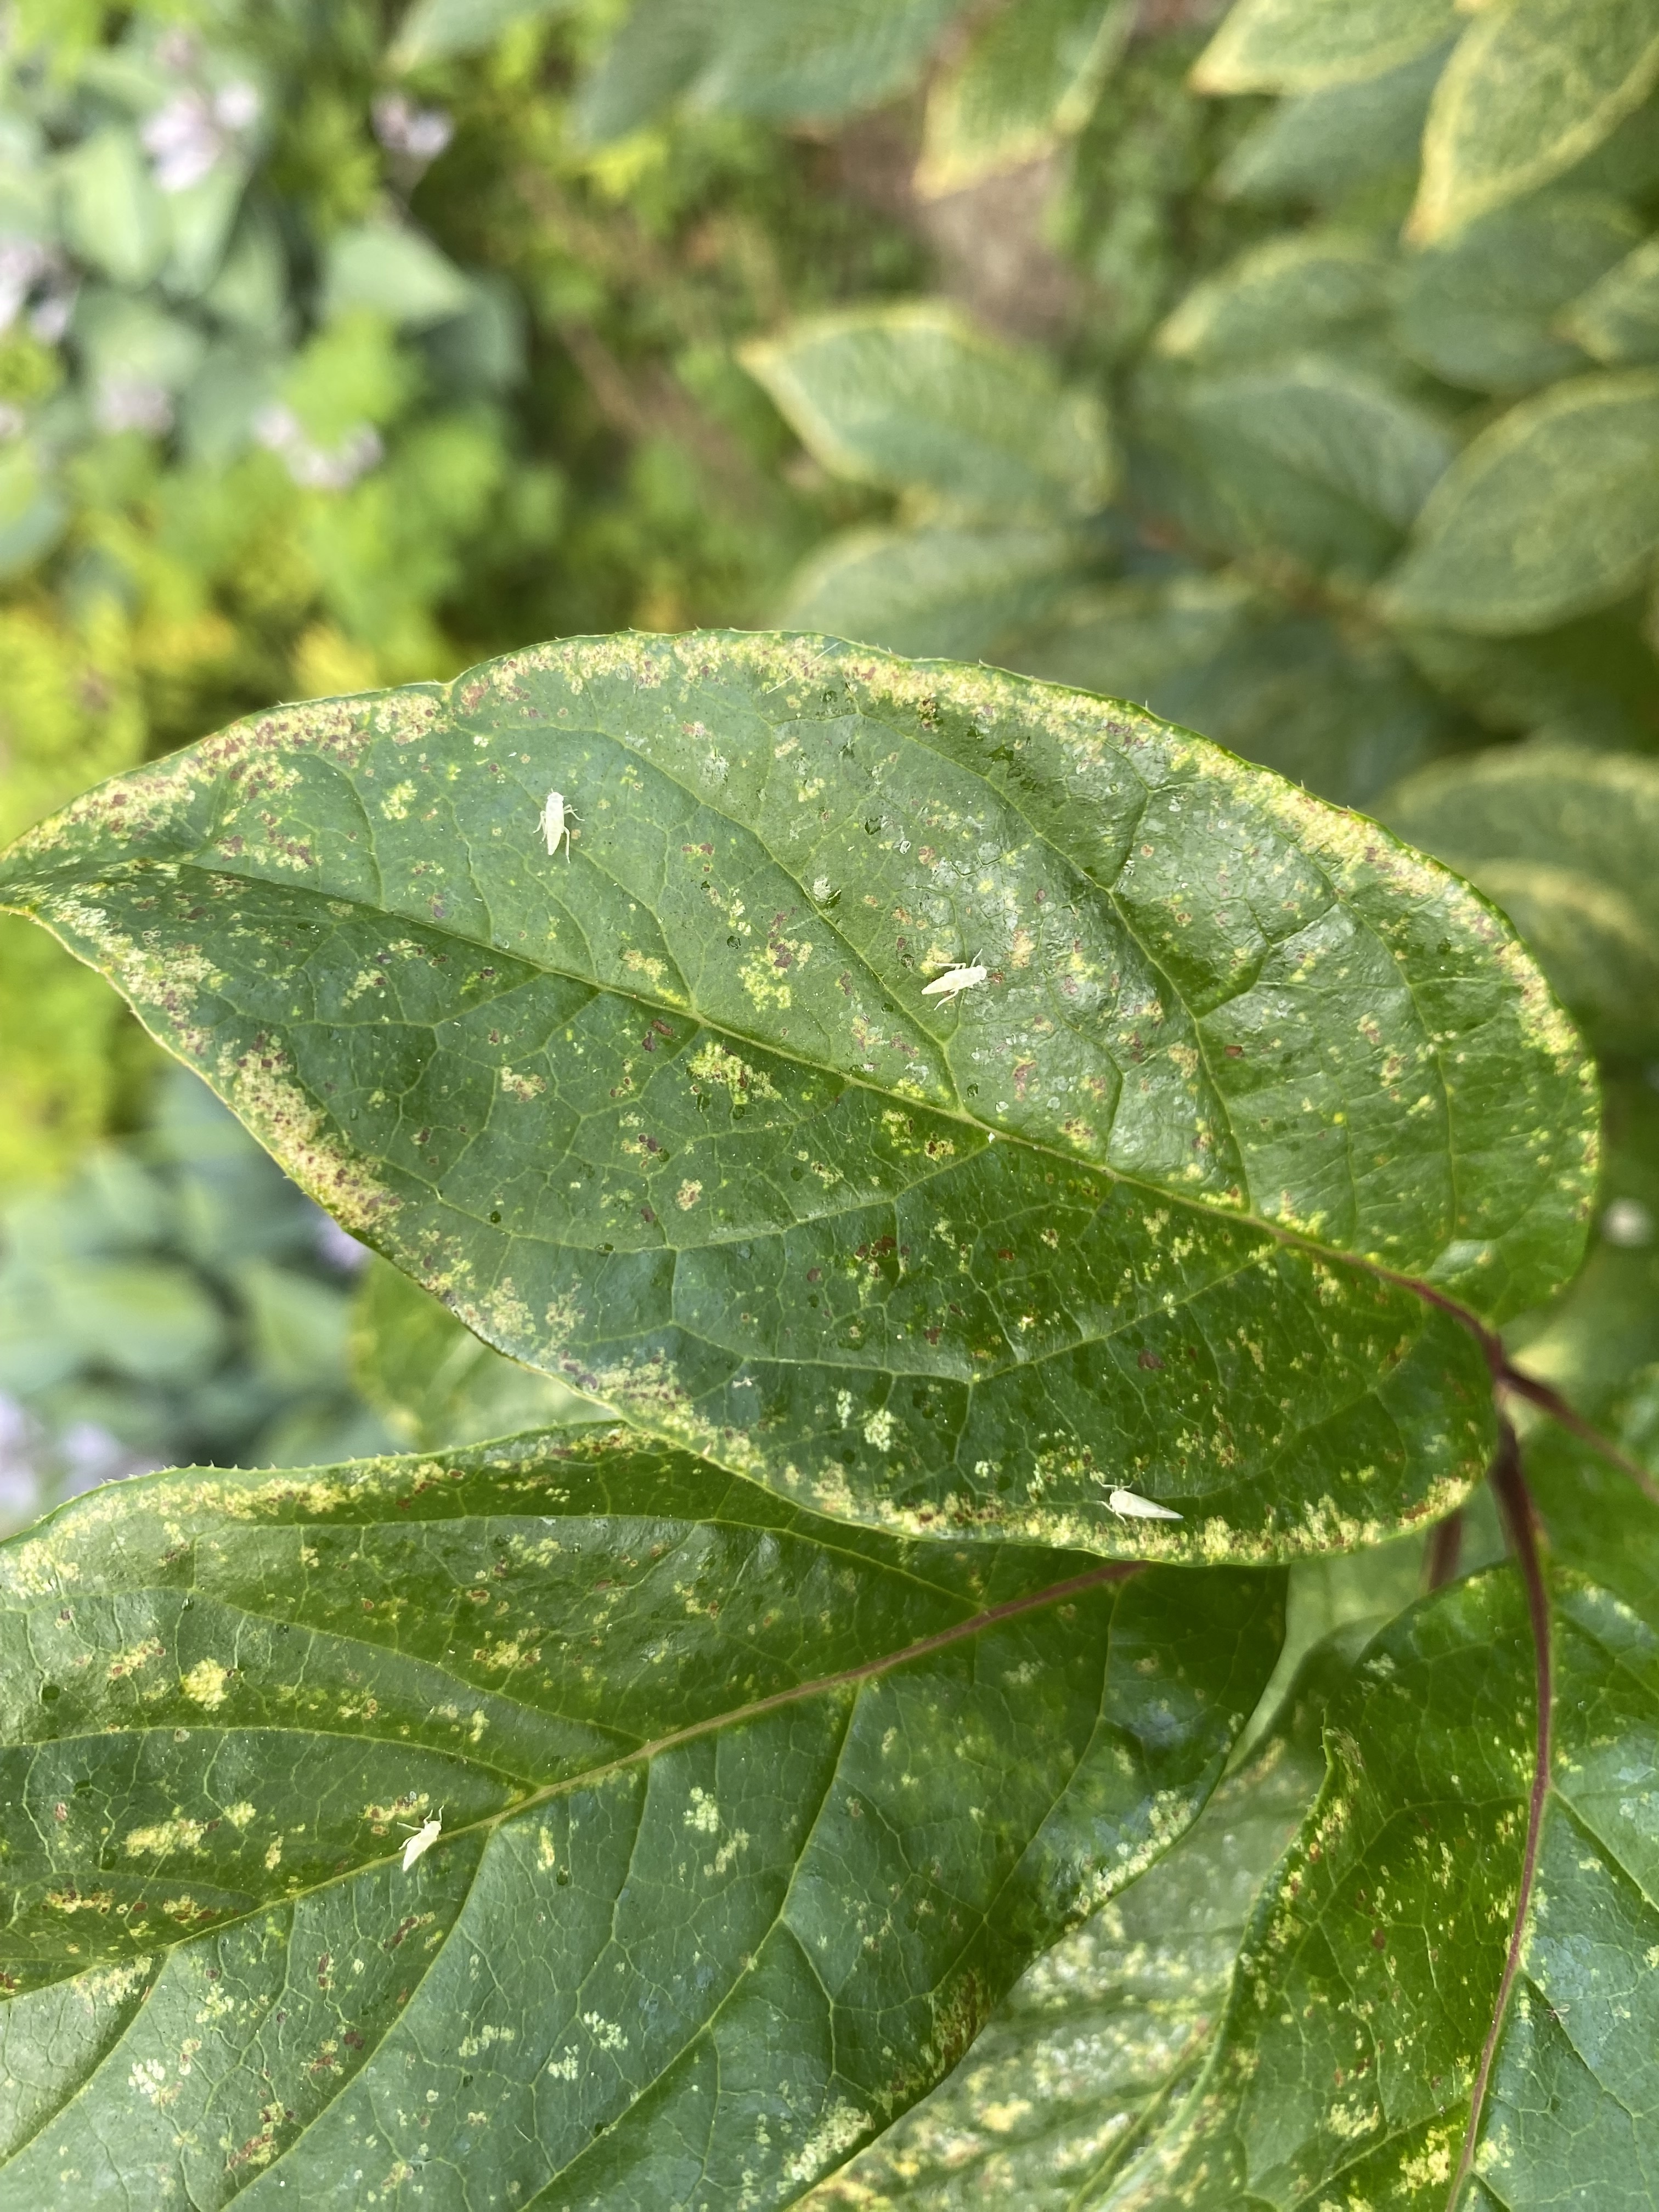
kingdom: Animalia
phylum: Arthropoda
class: Insecta
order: Hemiptera
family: Cicadellidae
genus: Vilbasteana
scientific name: Vilbasteana oculata
